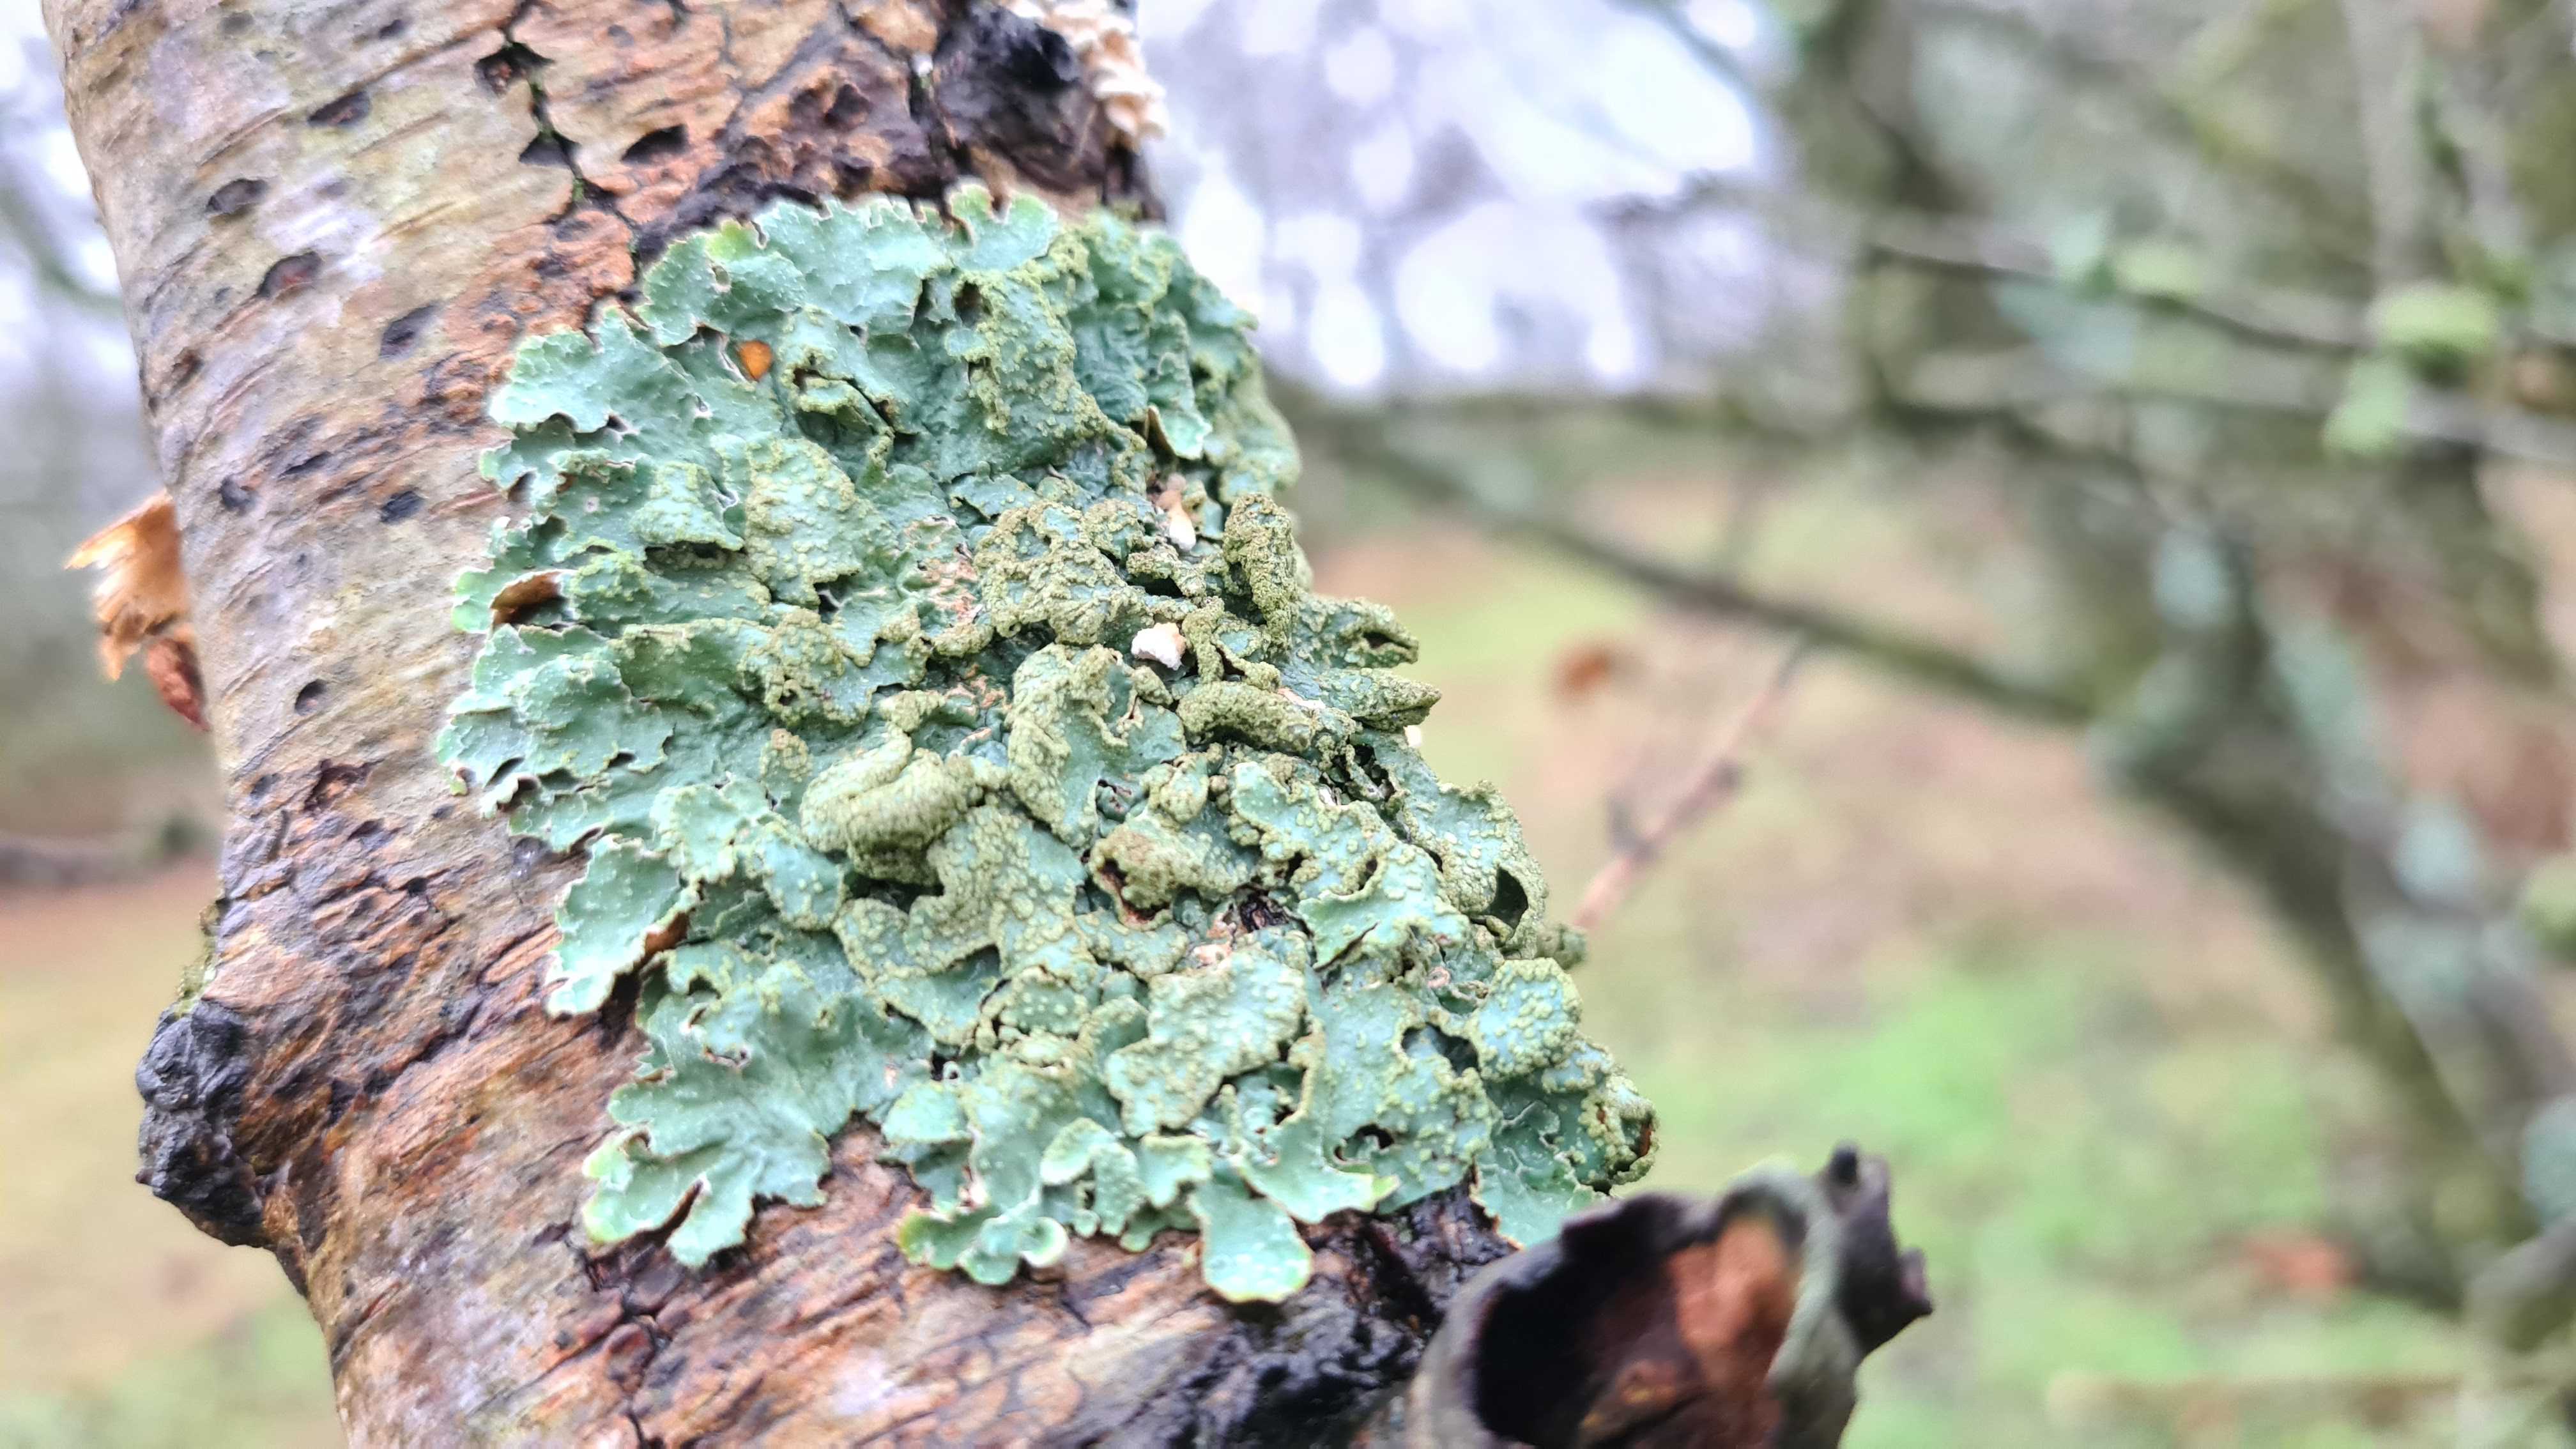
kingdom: Fungi
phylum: Ascomycota
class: Lecanoromycetes
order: Lecanorales
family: Parmeliaceae
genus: Parmelia
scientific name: Parmelia sulcata
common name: rynket skållav
